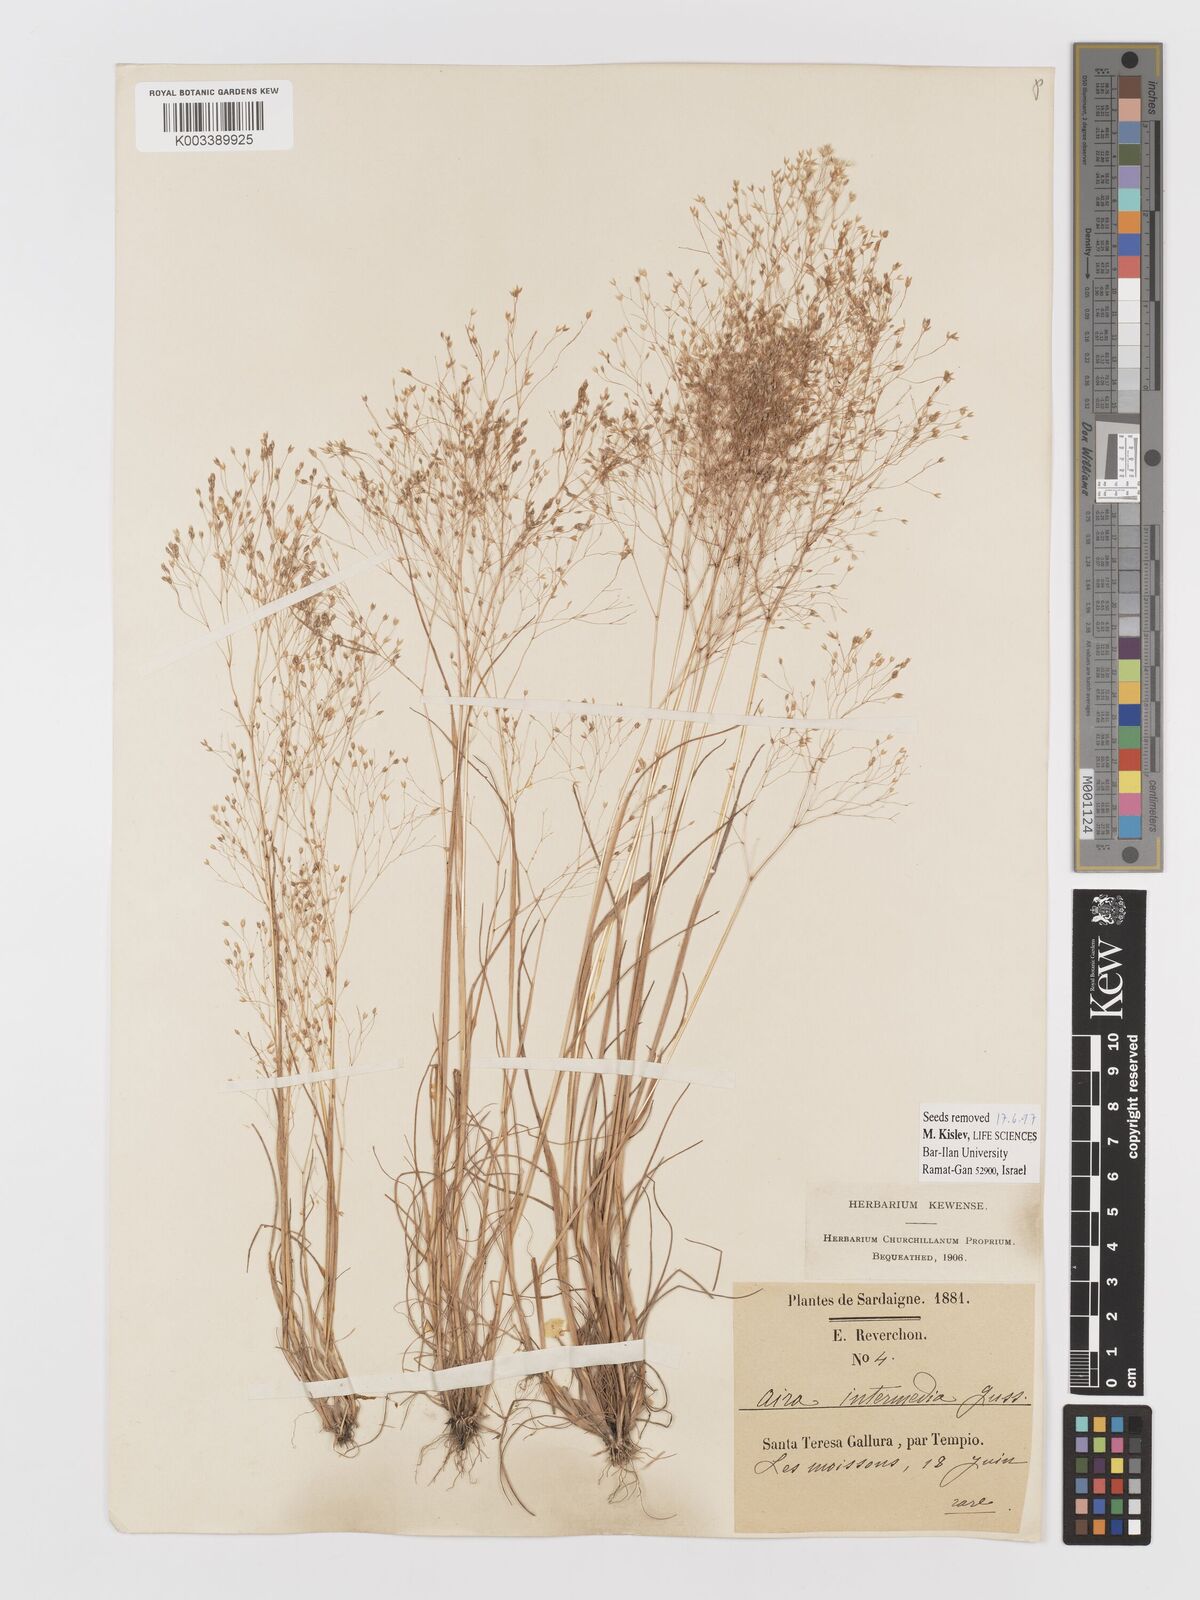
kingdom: Plantae
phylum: Tracheophyta
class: Liliopsida
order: Poales
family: Poaceae
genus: Aira
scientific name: Aira
